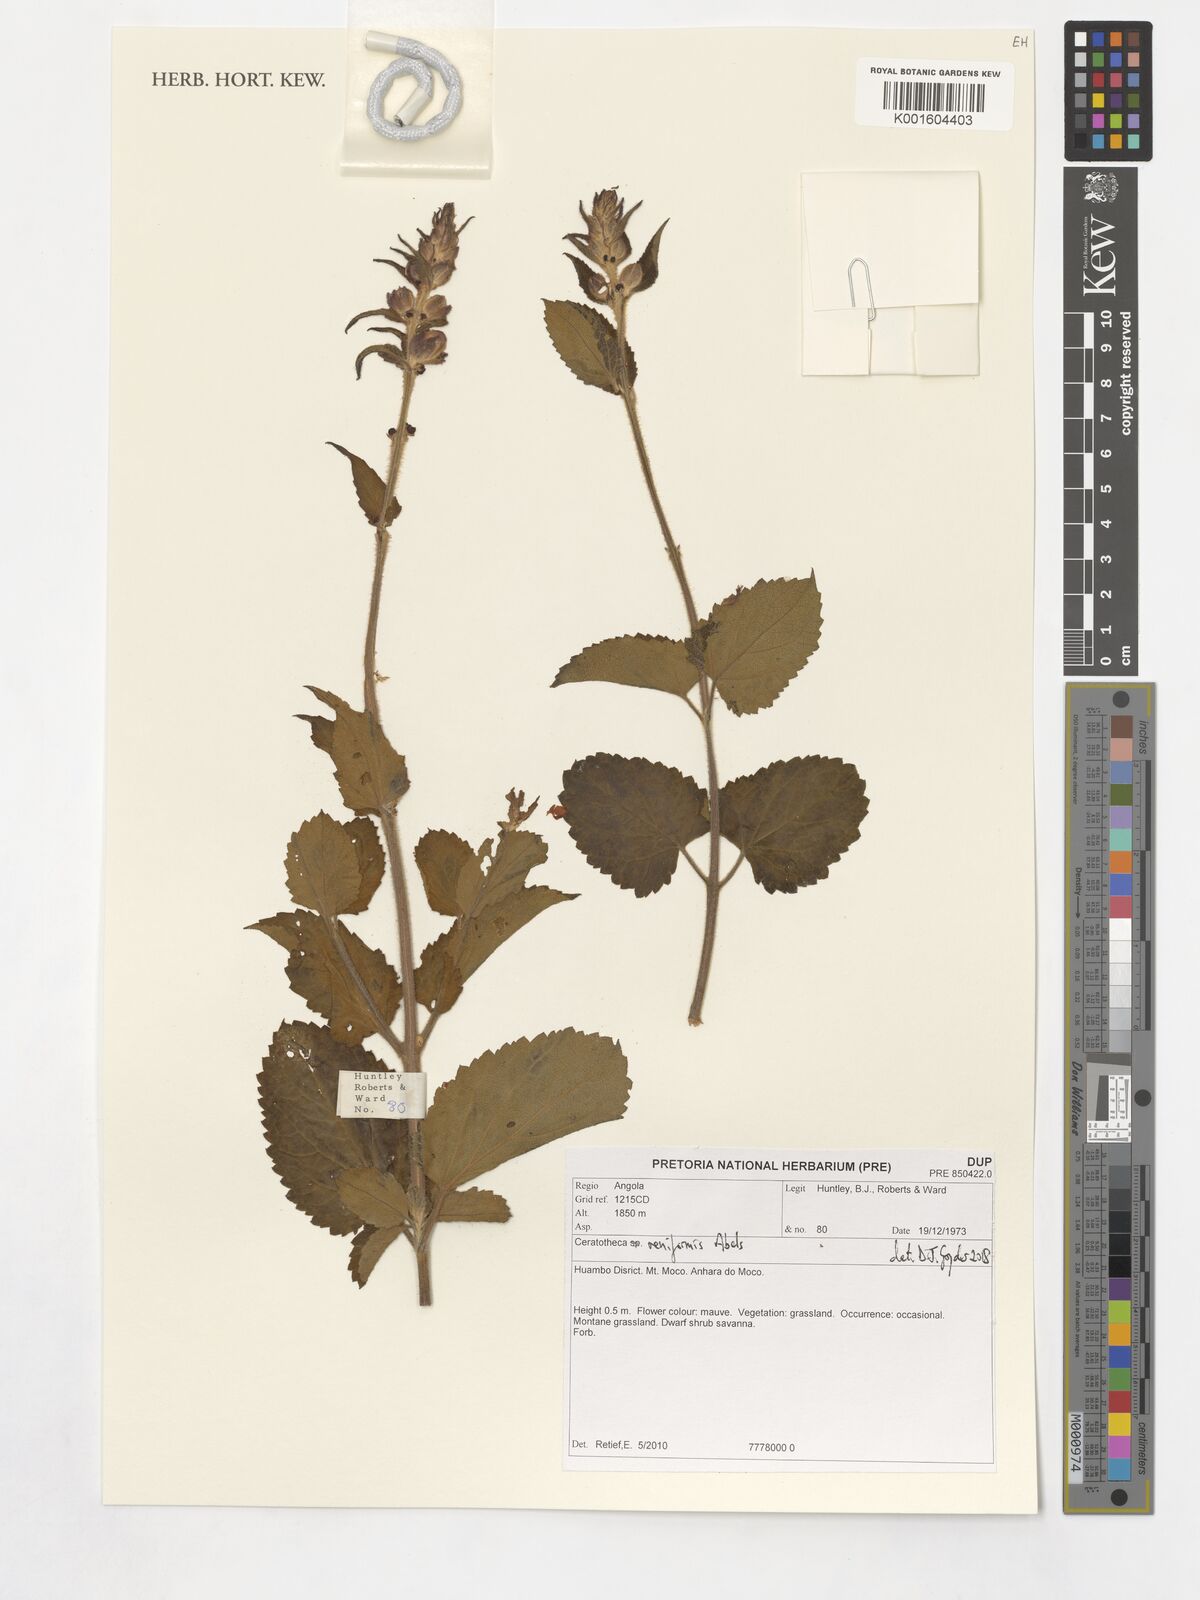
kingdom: Plantae
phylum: Tracheophyta
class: Magnoliopsida
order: Lamiales
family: Pedaliaceae
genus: Sesamum
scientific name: Sesamum reniforme
